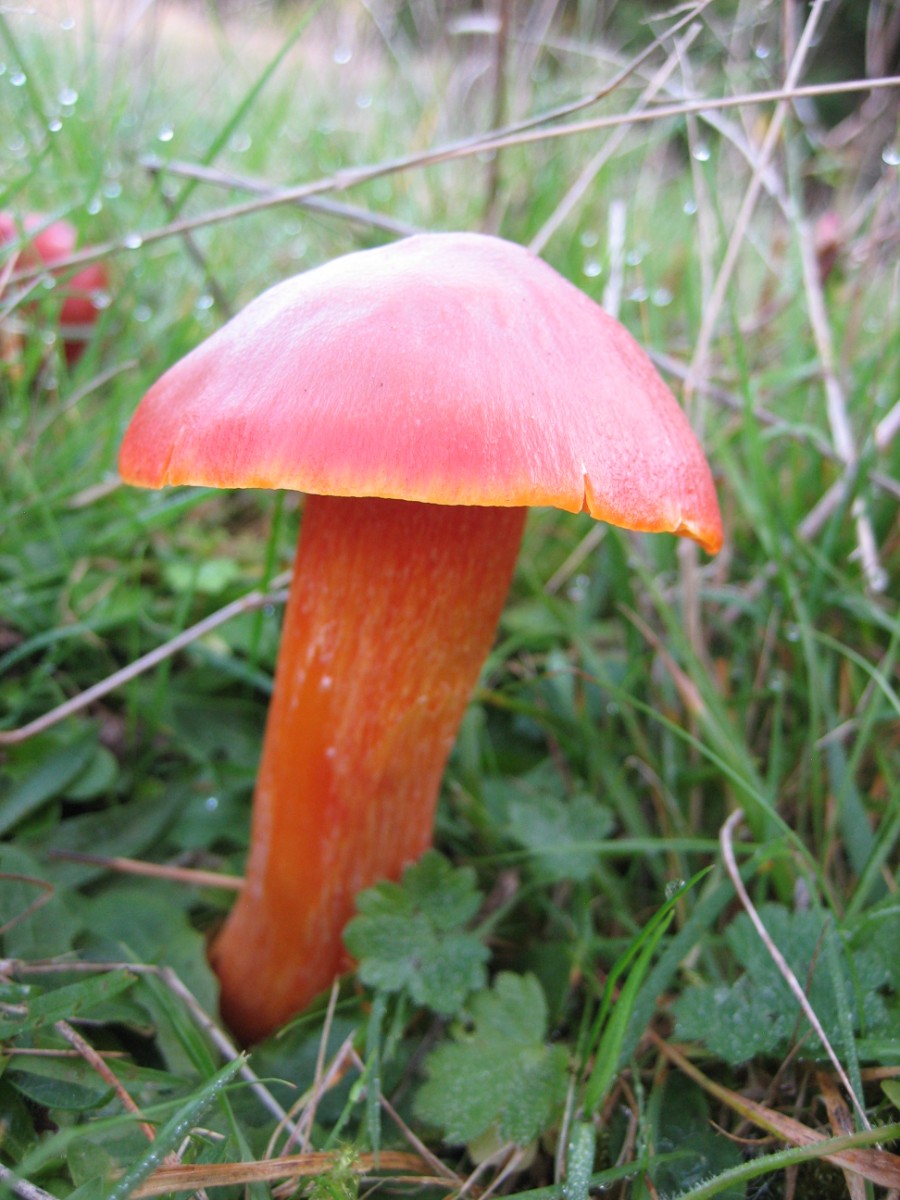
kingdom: Fungi
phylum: Basidiomycota
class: Agaricomycetes
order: Agaricales
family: Hygrophoraceae
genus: Hygrocybe
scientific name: Hygrocybe punicea
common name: skarlagen-vokshat
